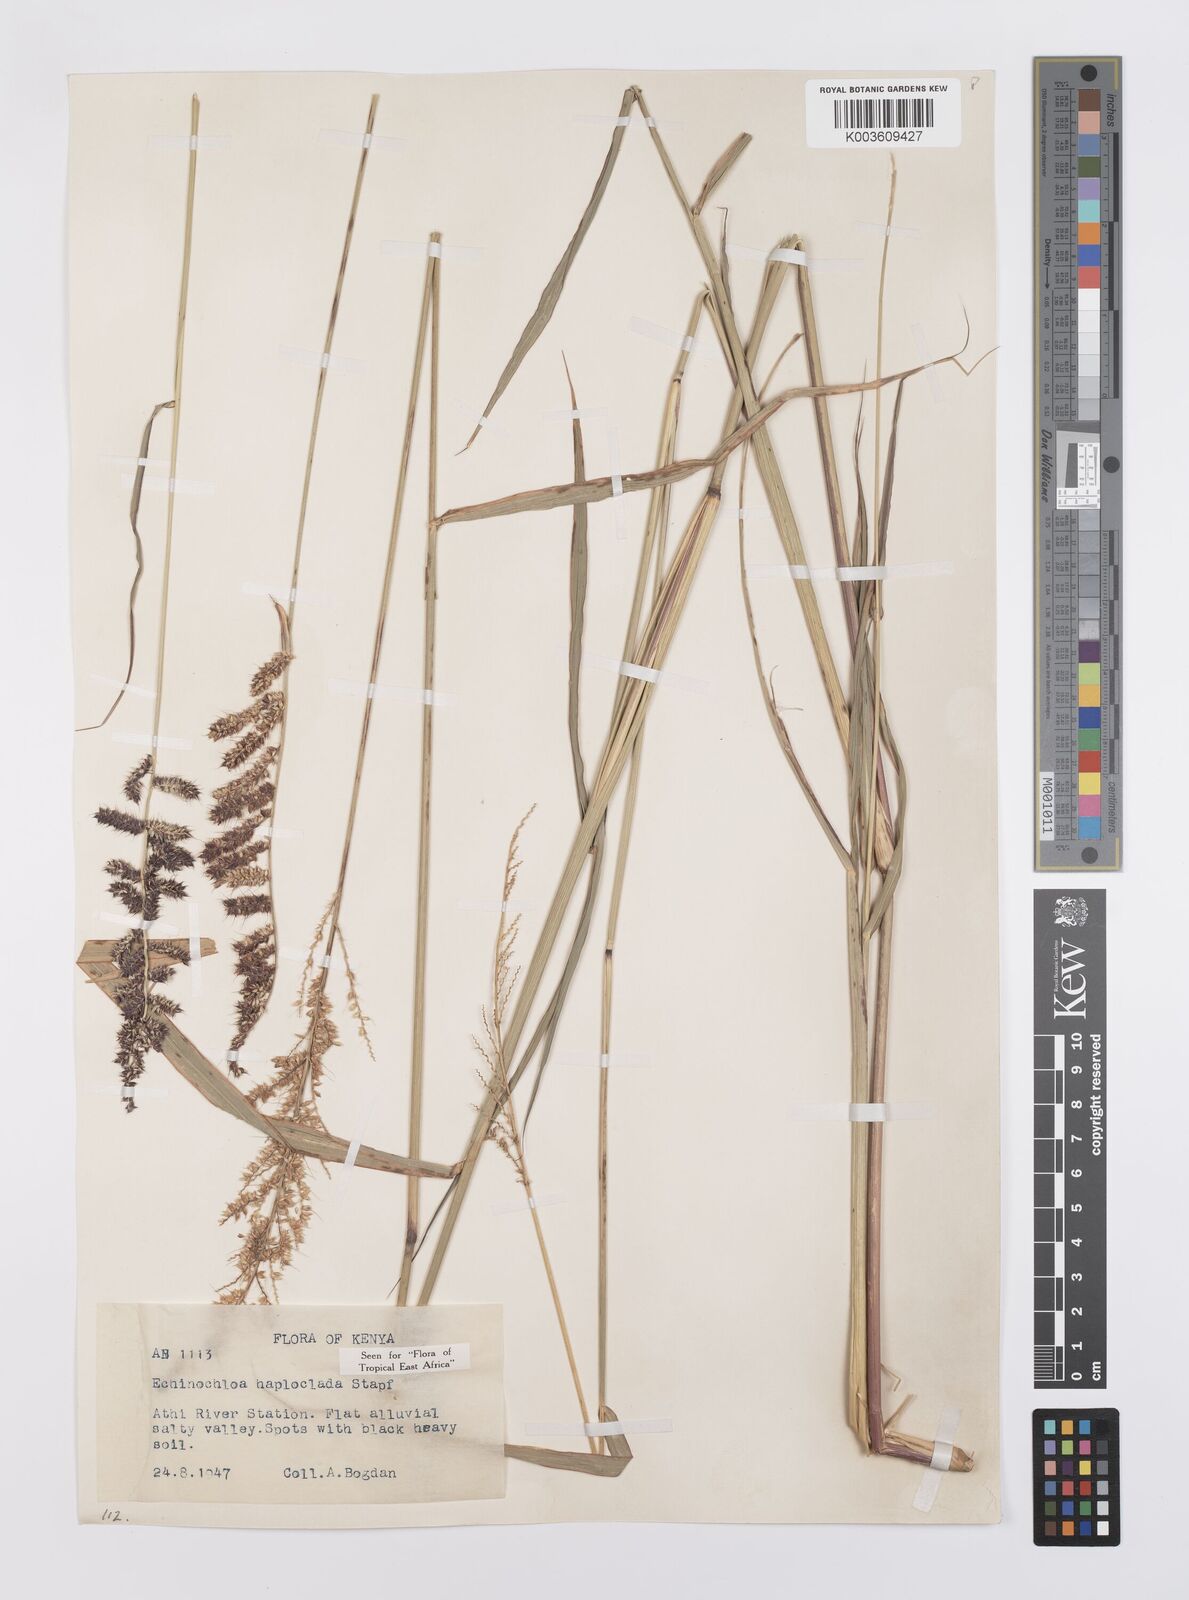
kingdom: Plantae
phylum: Tracheophyta
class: Liliopsida
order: Poales
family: Poaceae
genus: Echinochloa
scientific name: Echinochloa haploclada
